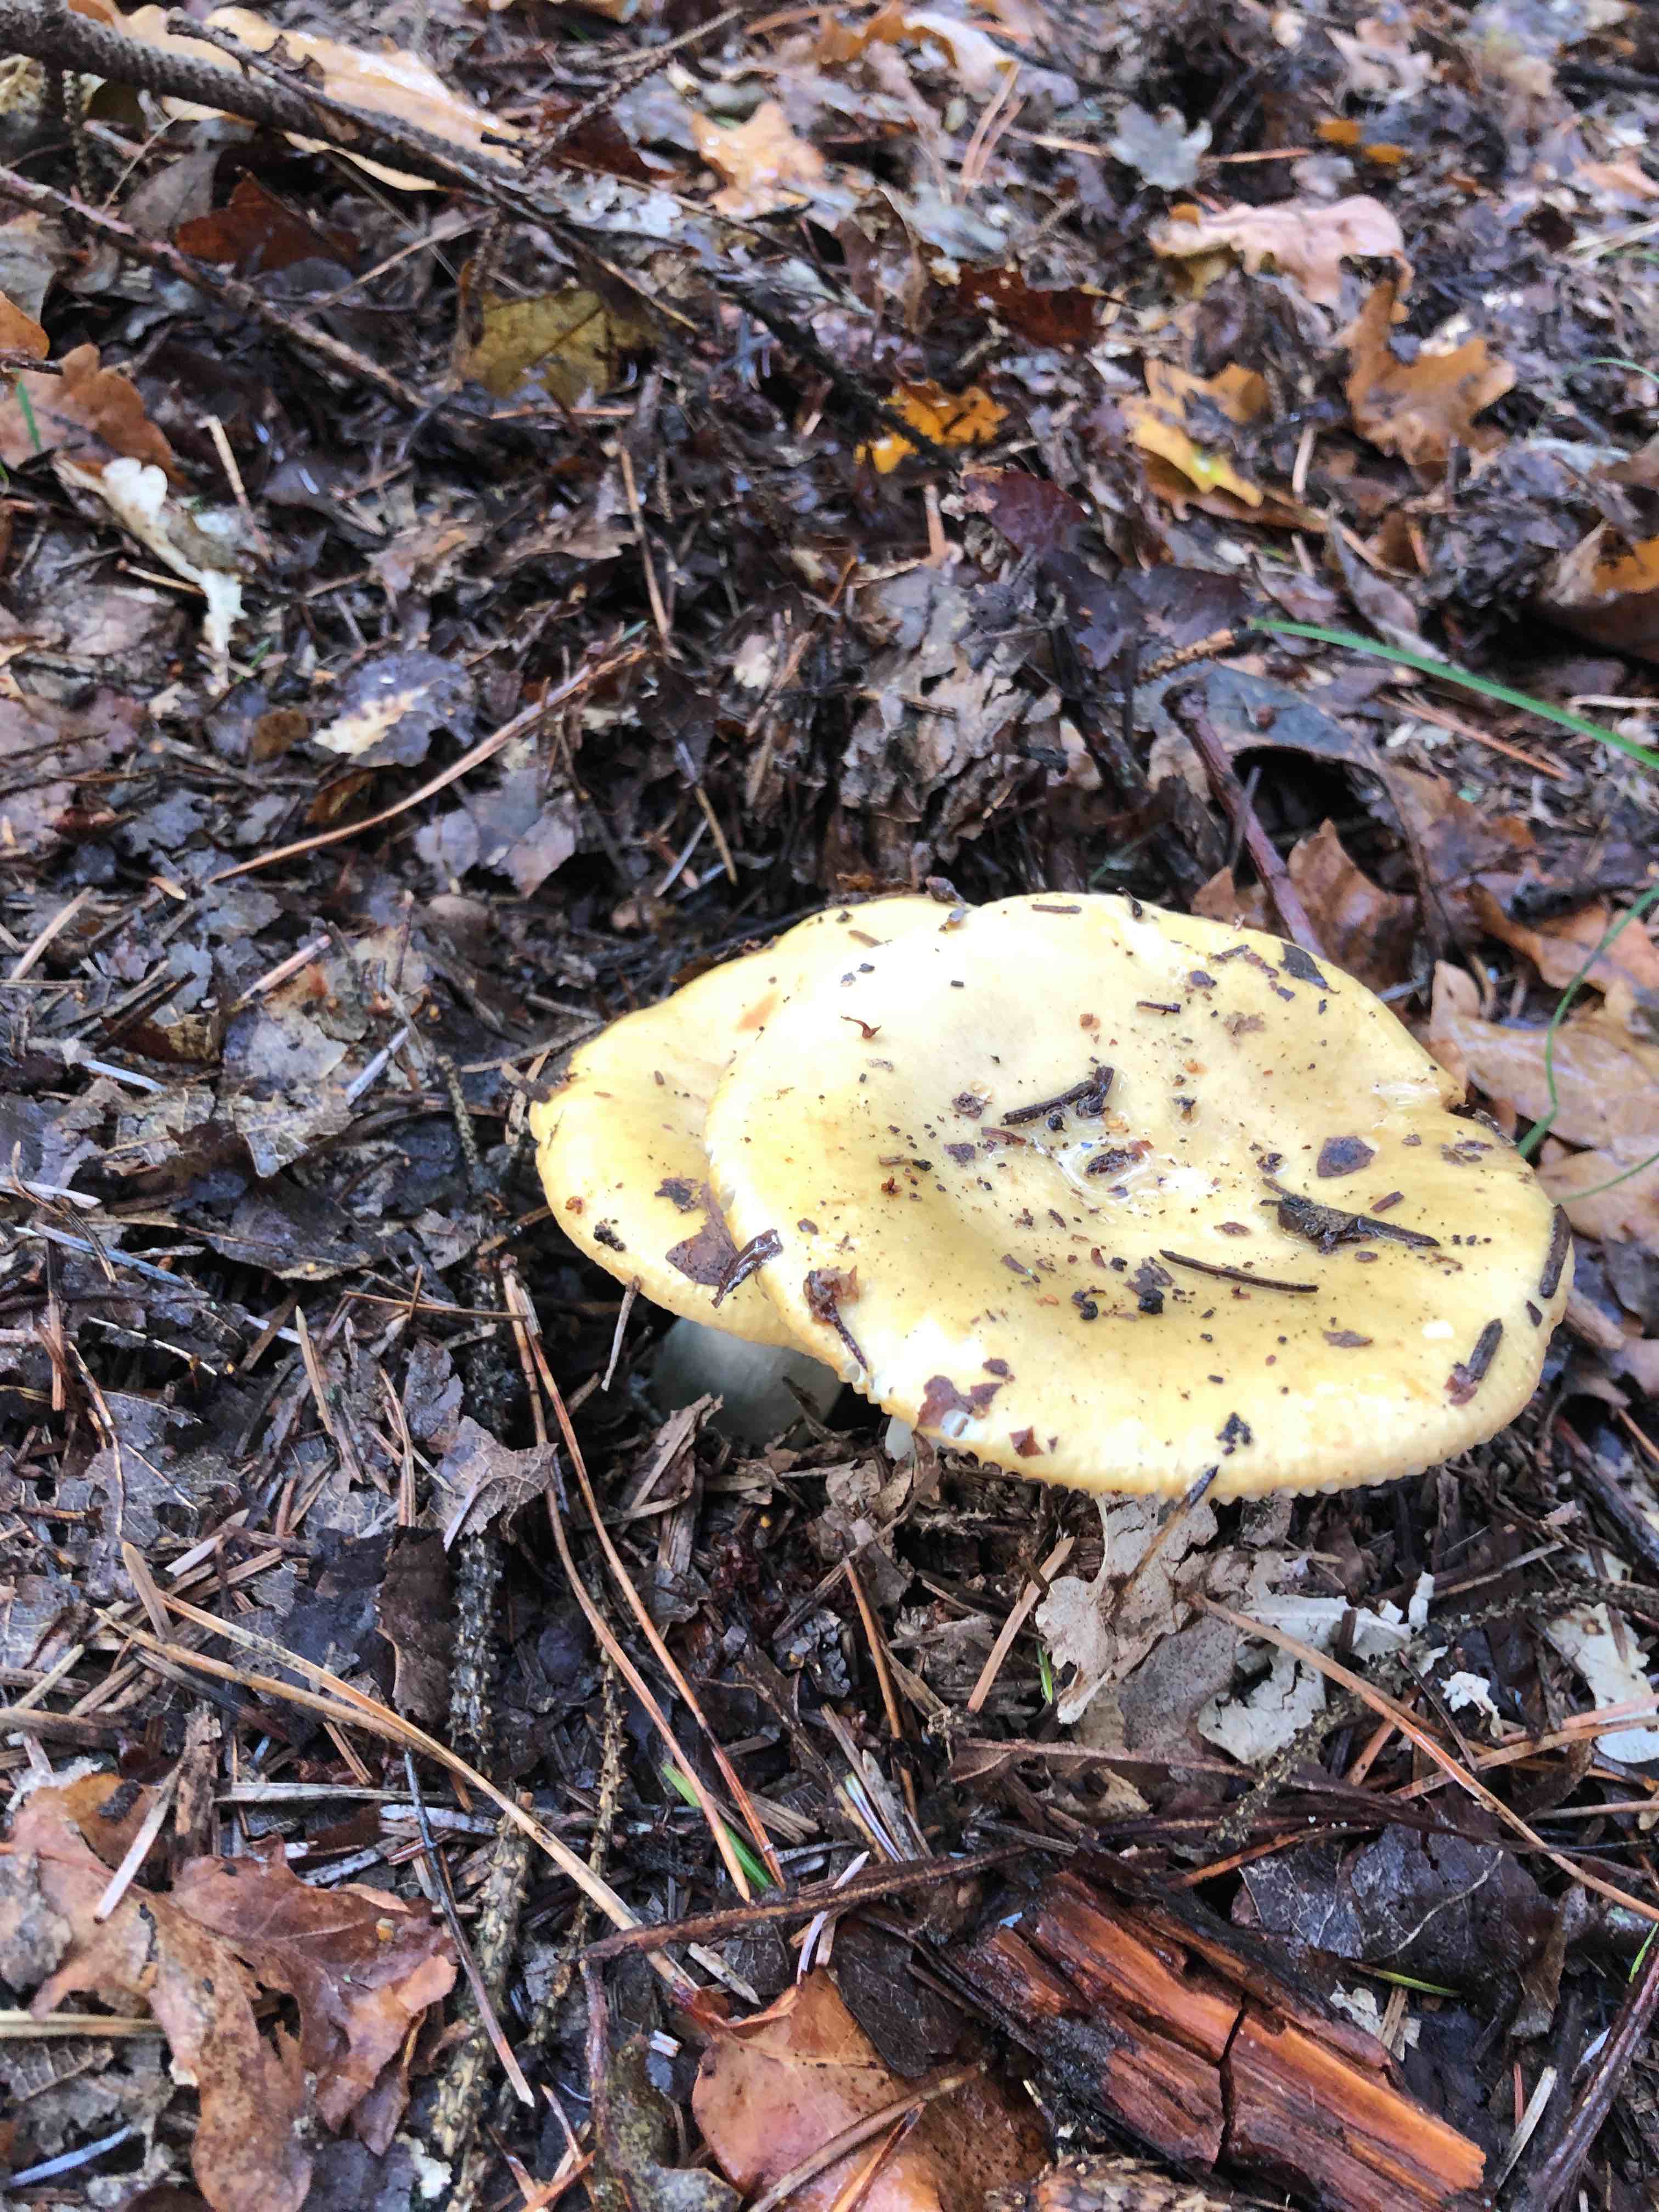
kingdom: Fungi
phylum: Basidiomycota
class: Agaricomycetes
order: Russulales
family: Russulaceae
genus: Russula
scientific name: Russula
